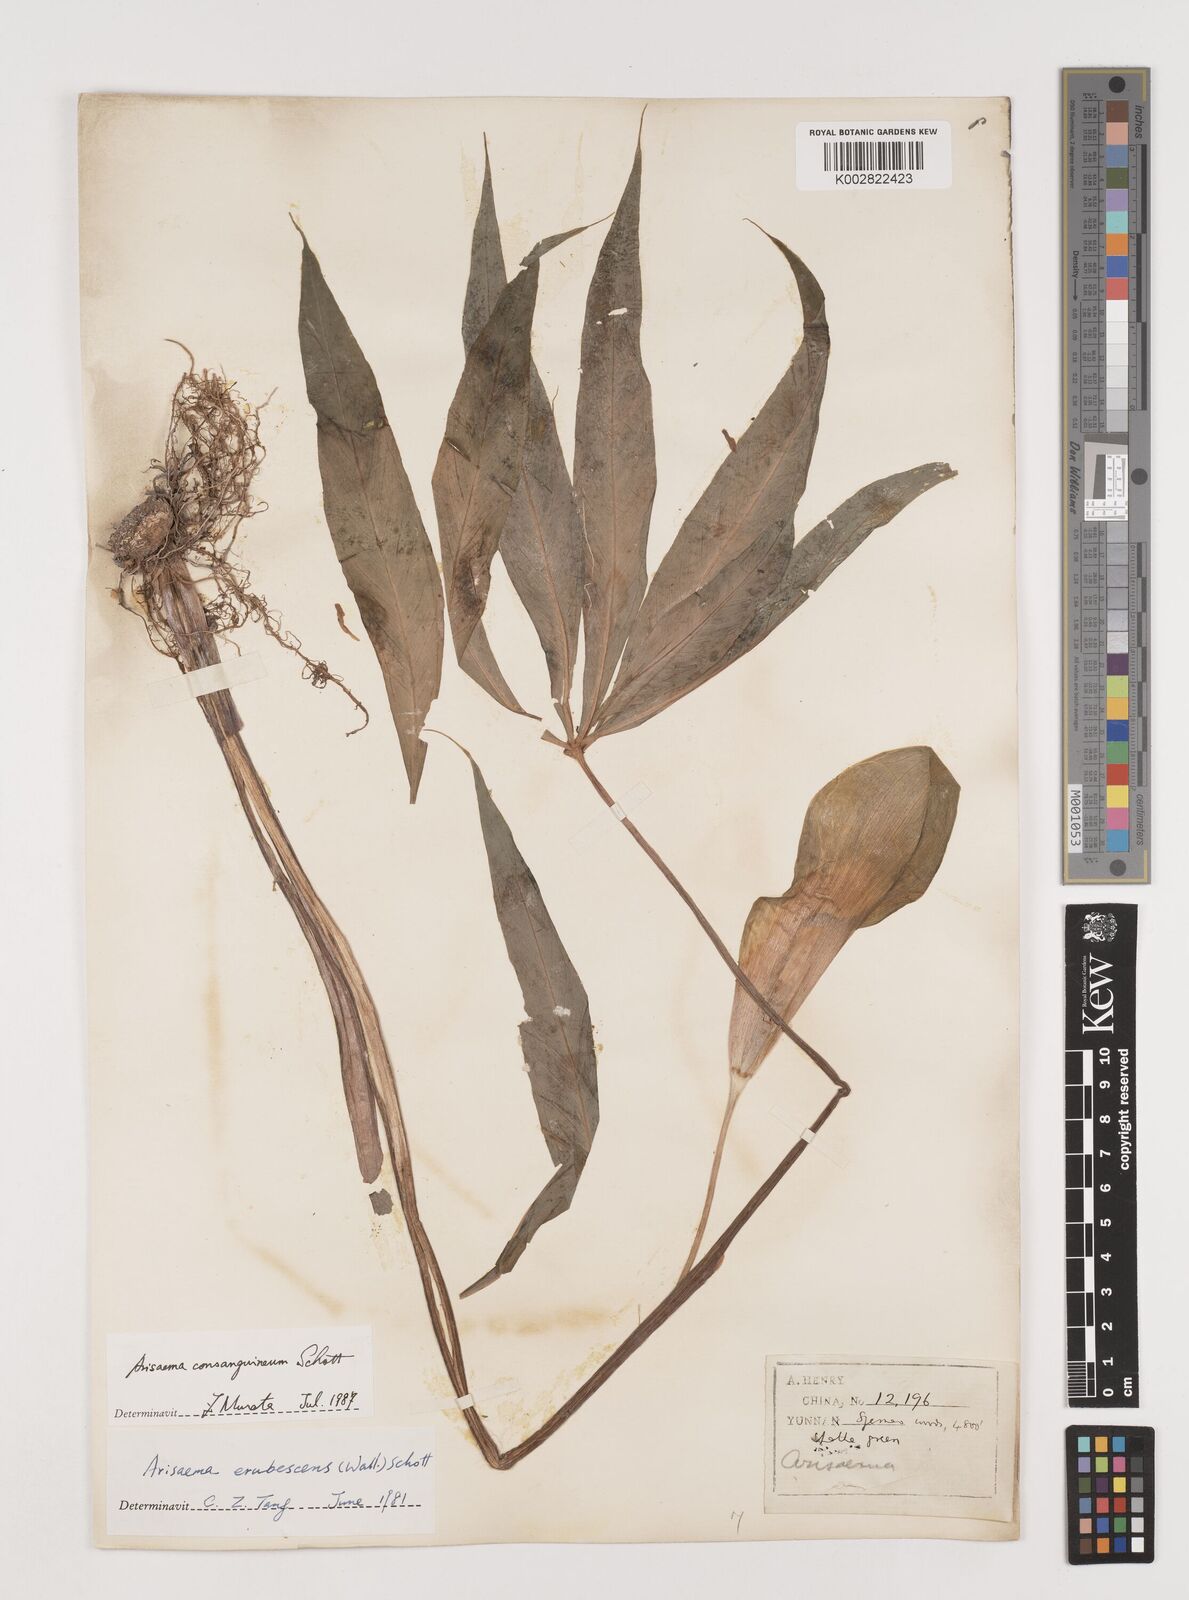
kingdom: Plantae
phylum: Tracheophyta
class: Liliopsida
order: Alismatales
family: Araceae
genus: Arisaema
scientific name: Arisaema erubescens
